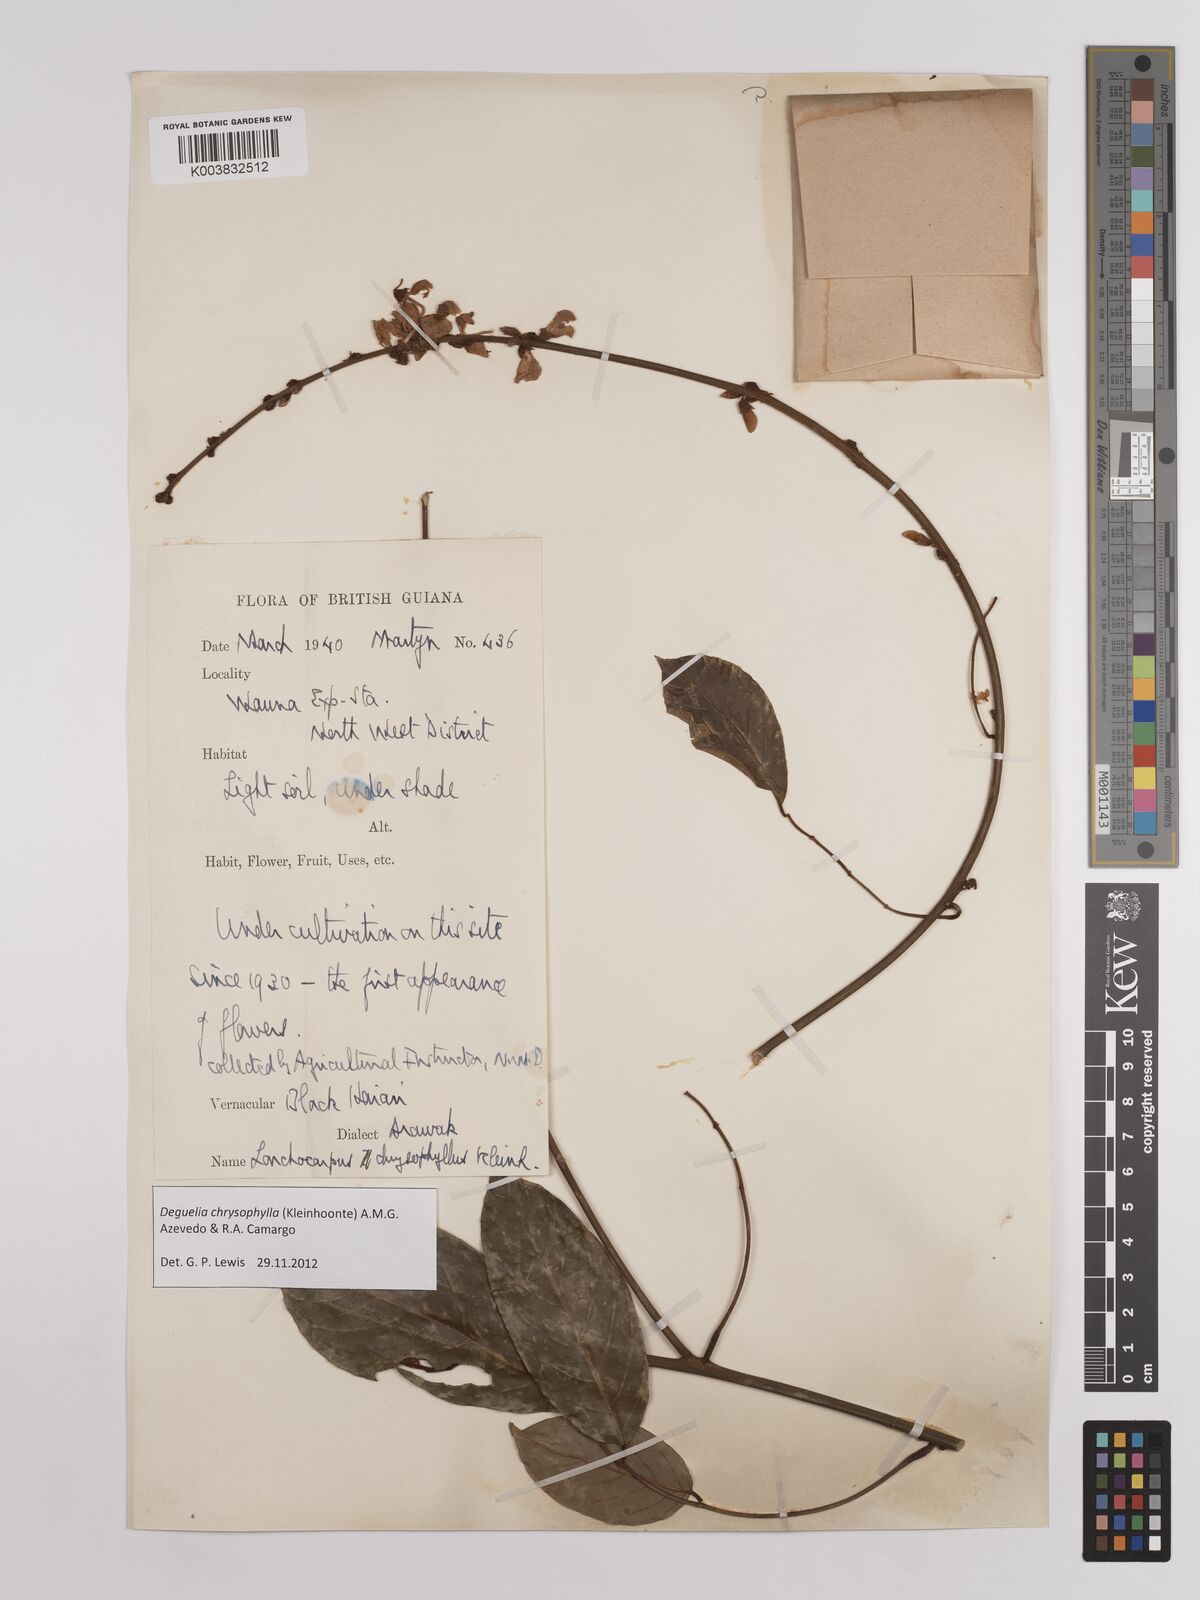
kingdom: Plantae
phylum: Tracheophyta
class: Magnoliopsida
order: Fabales
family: Fabaceae
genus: Deguelia
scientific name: Deguelia chrysophylla
